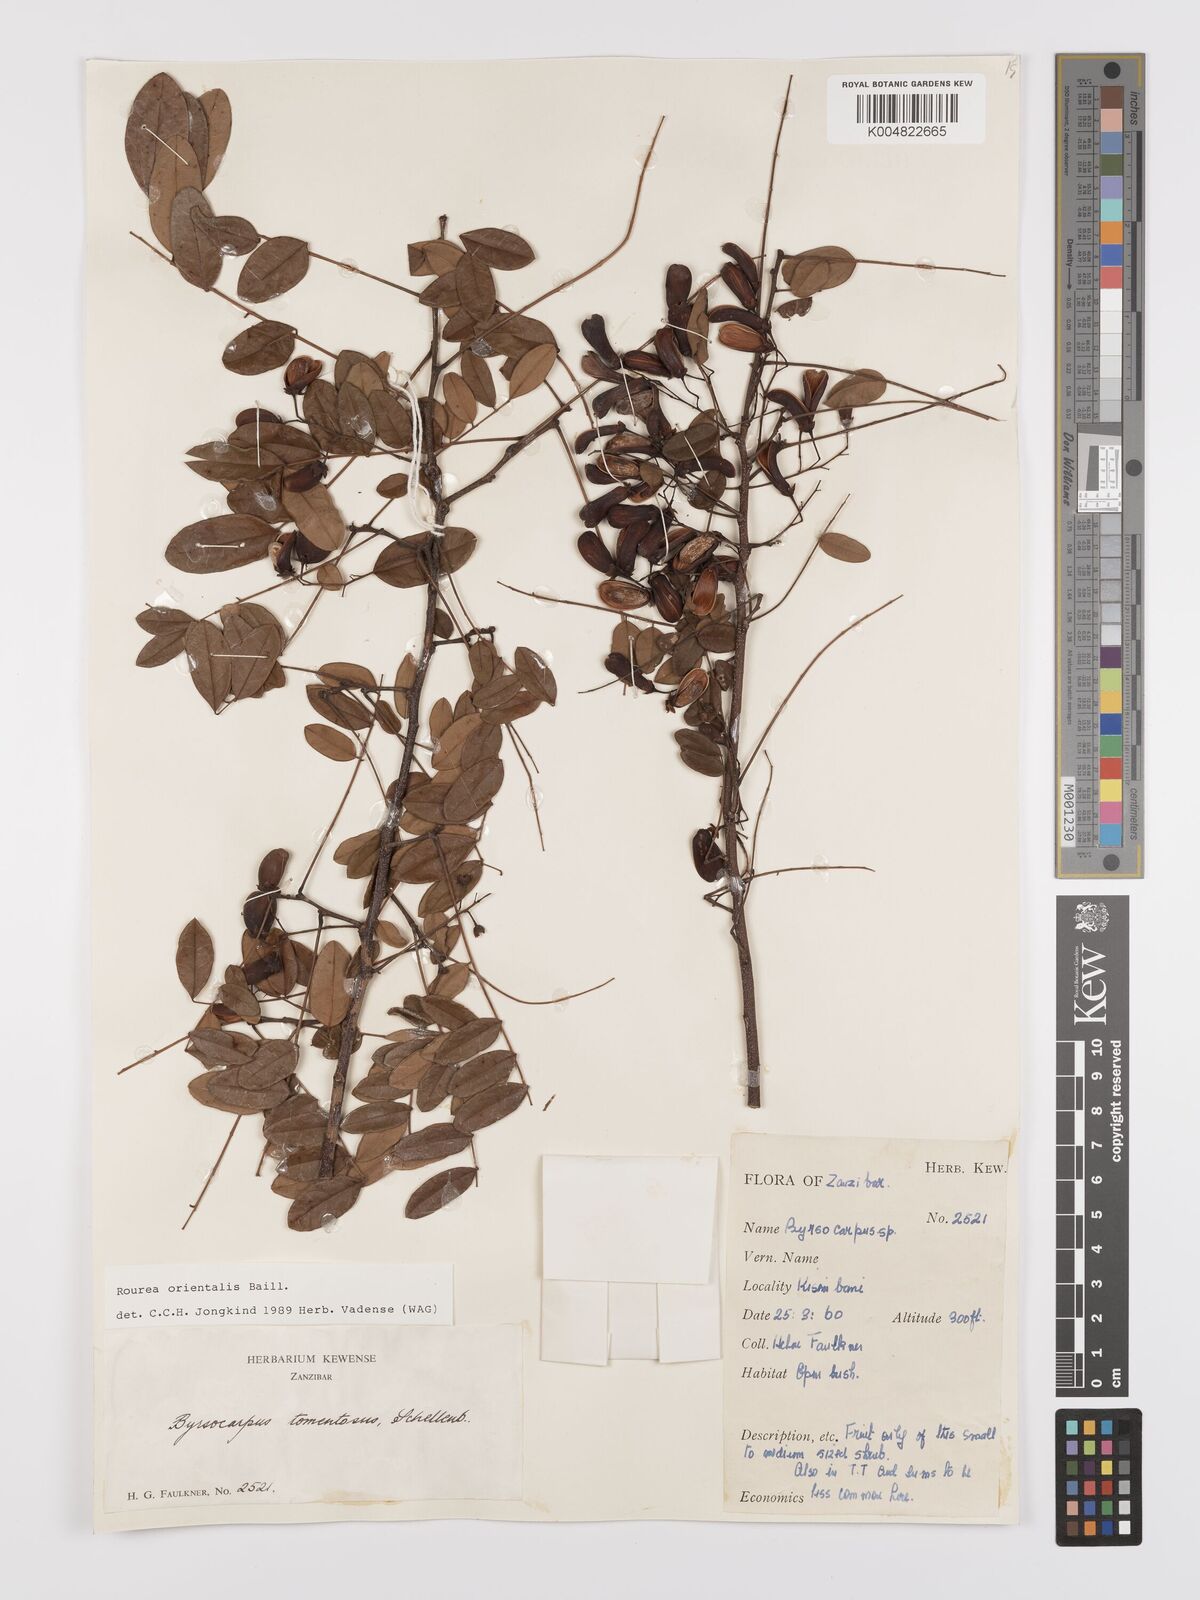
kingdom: Plantae
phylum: Tracheophyta
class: Magnoliopsida
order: Oxalidales
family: Connaraceae
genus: Rourea
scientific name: Rourea orientalis
